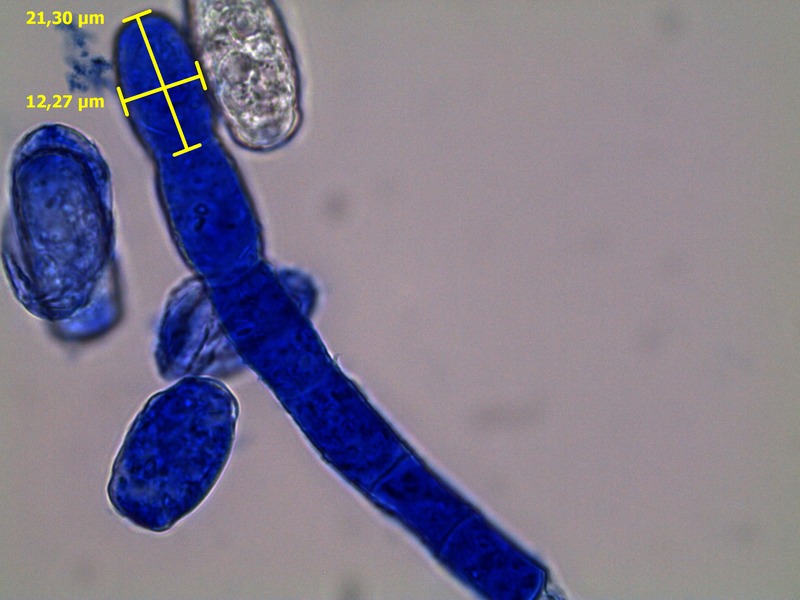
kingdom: Fungi
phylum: Ascomycota
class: Leotiomycetes
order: Helotiales
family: Erysiphaceae
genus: Podosphaera
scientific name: Podosphaera ferruginea
